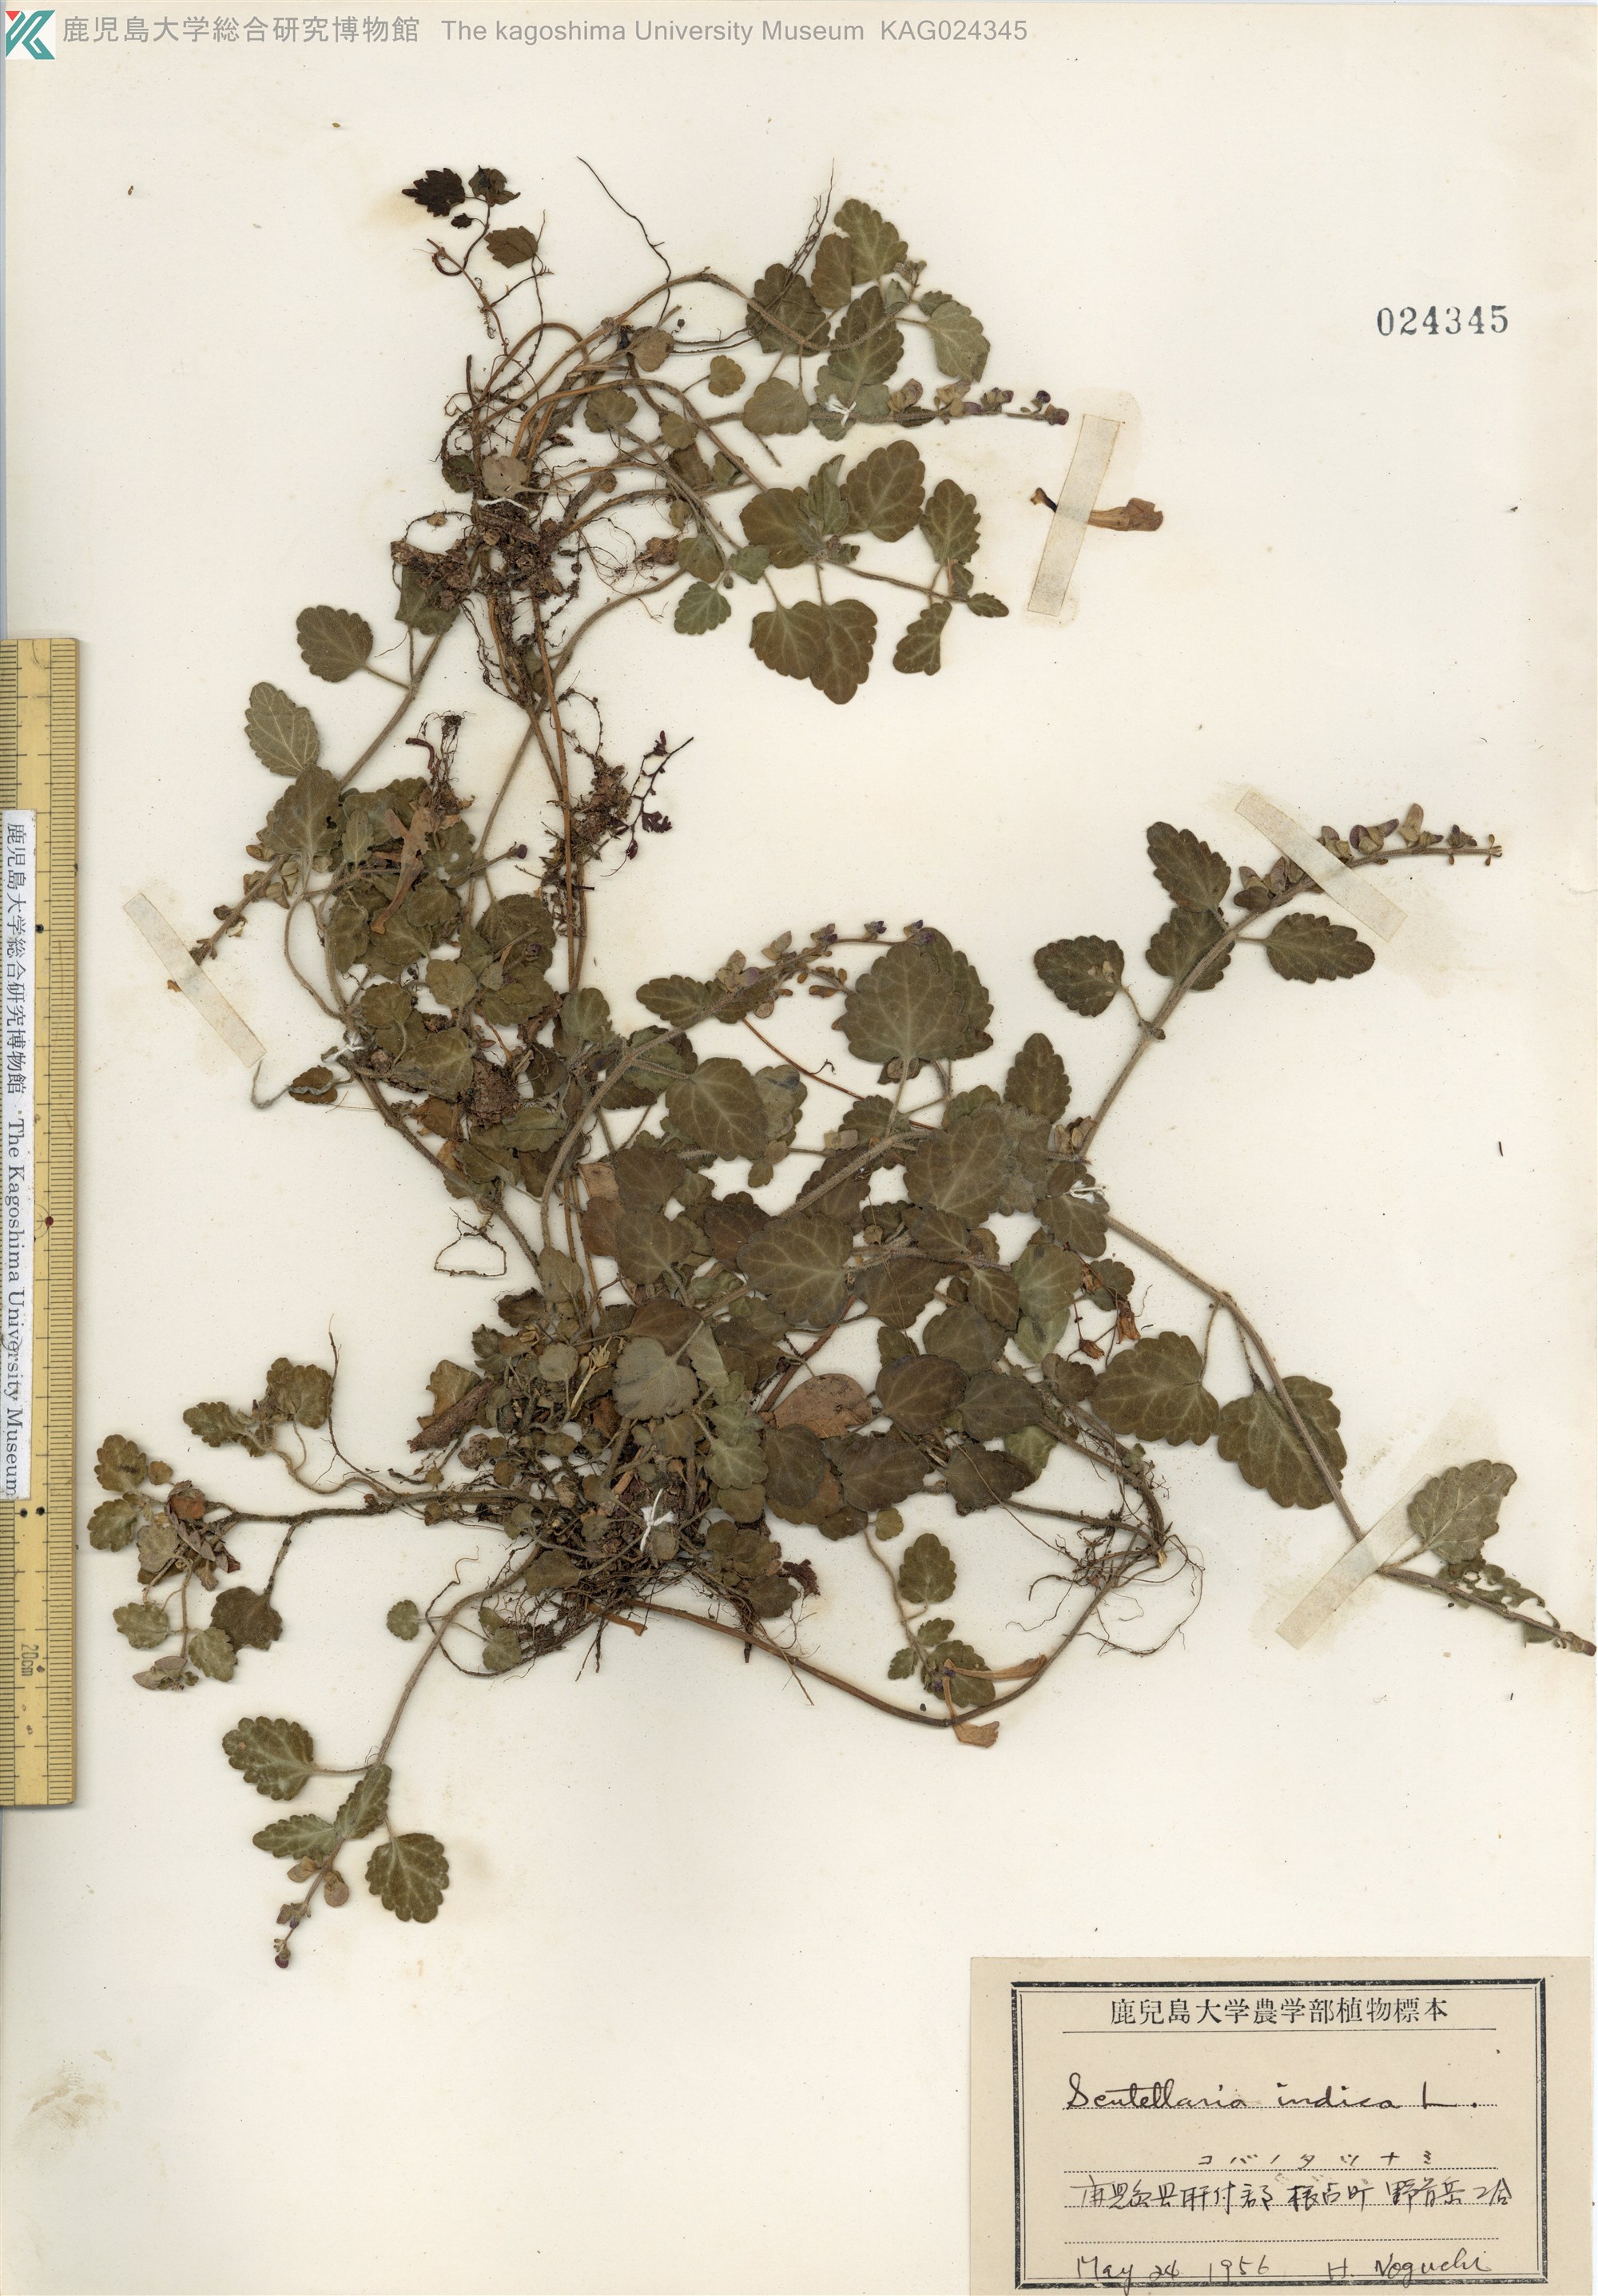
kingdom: Plantae
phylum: Tracheophyta
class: Magnoliopsida
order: Lamiales
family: Lamiaceae
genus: Scutellaria
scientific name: Scutellaria indica
